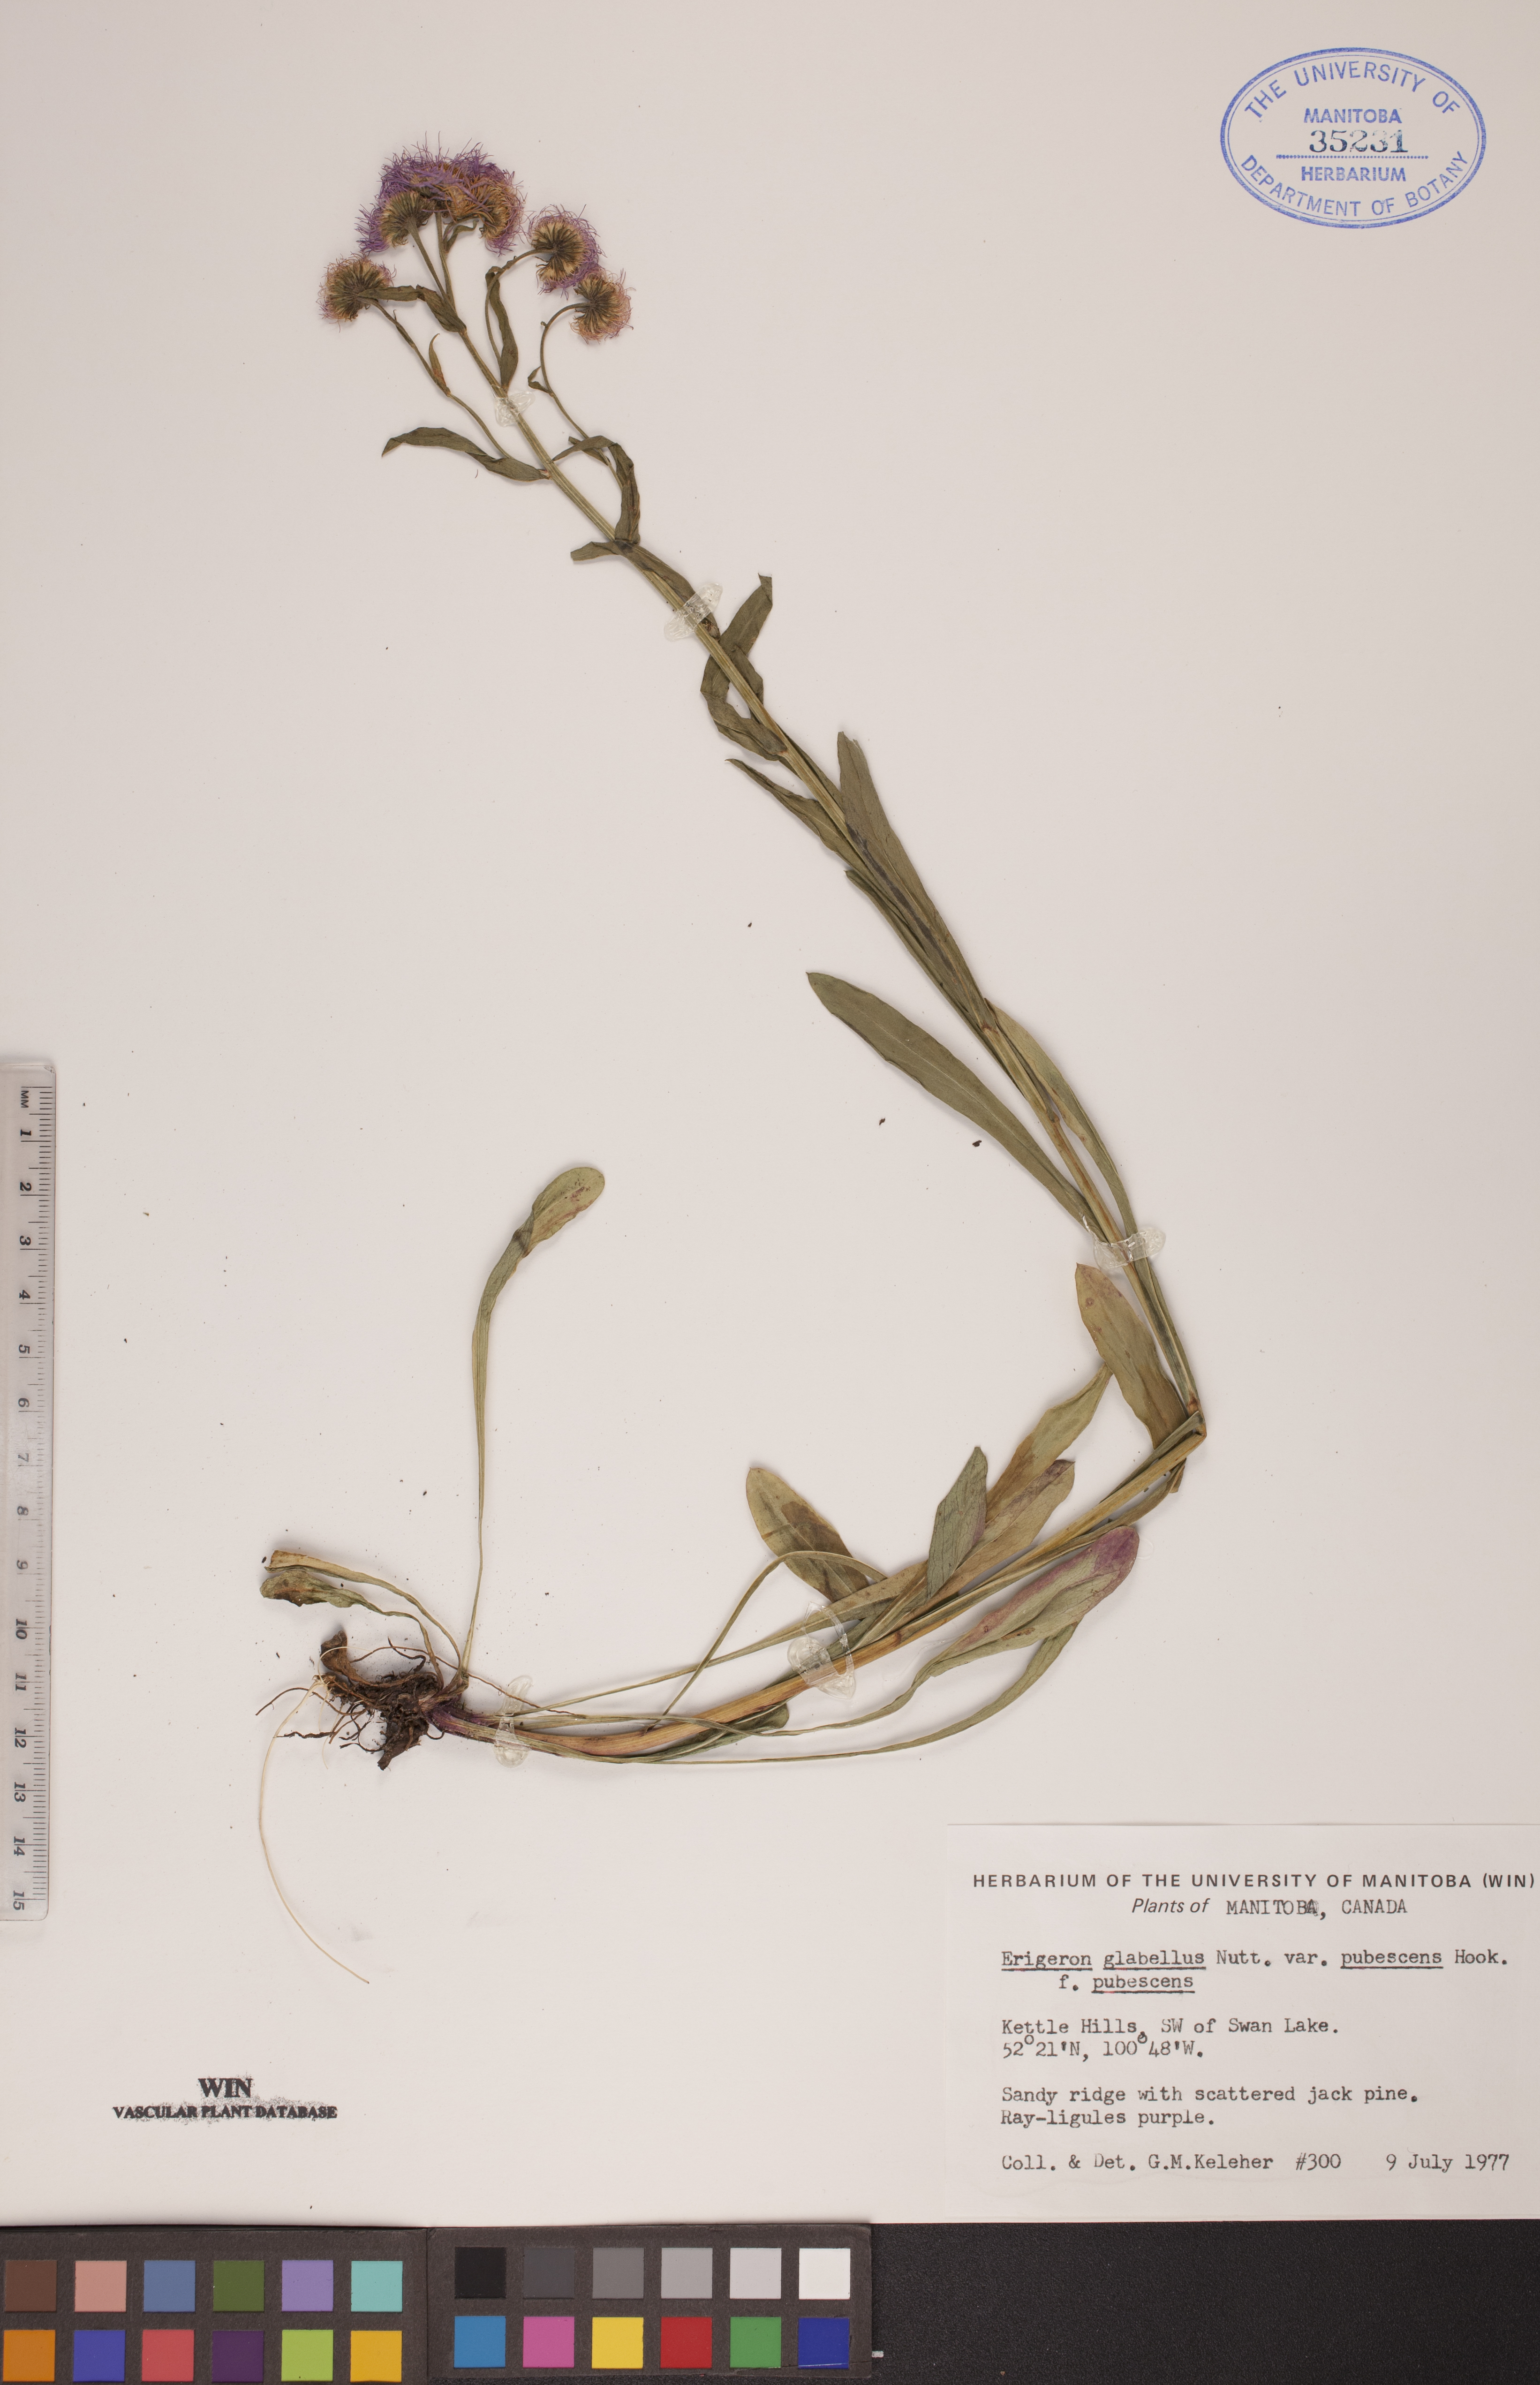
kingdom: Plantae
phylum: Tracheophyta
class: Magnoliopsida
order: Asterales
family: Asteraceae
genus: Erigeron
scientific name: Erigeron glabellus
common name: Smooth fleabane
